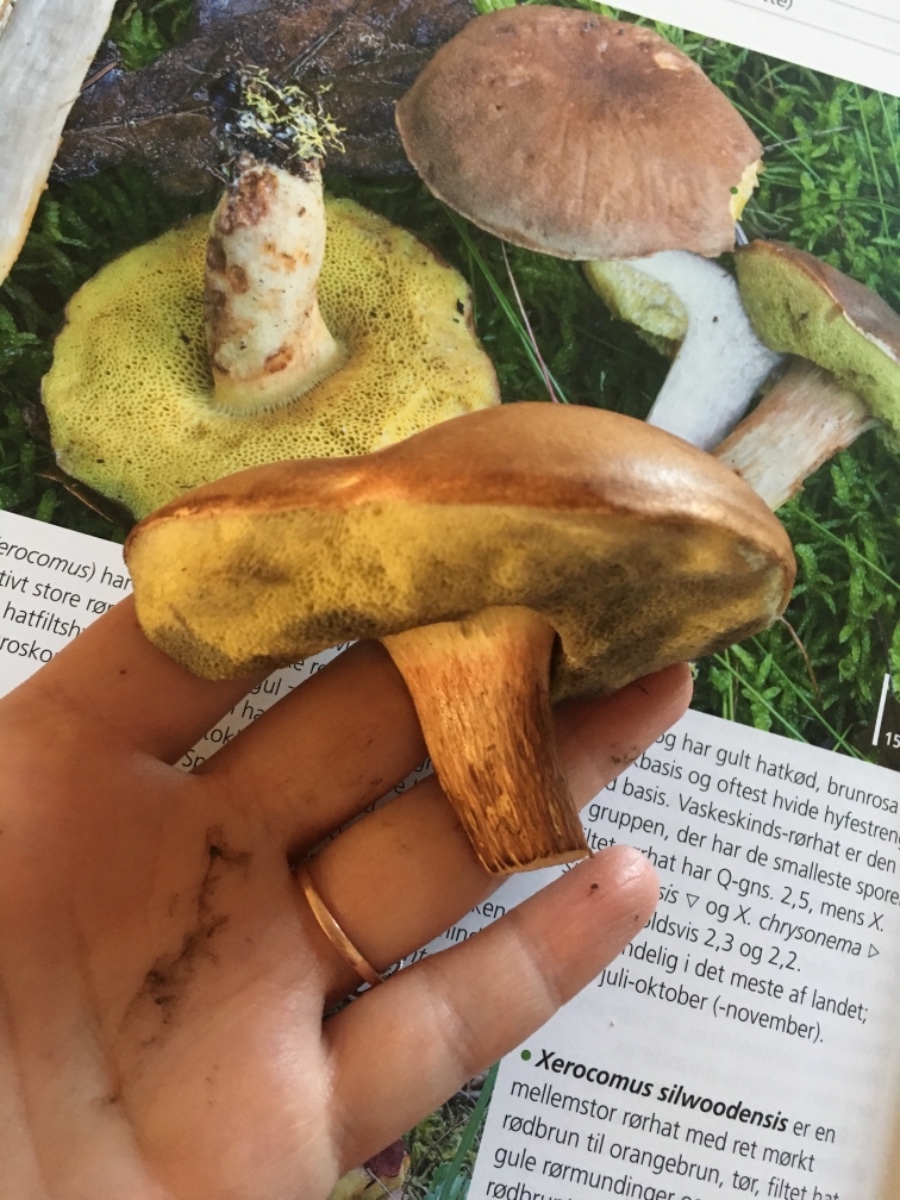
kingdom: Fungi
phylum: Basidiomycota
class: Agaricomycetes
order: Boletales
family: Boletaceae
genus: Imleria
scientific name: Imleria badia
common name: brunstokket rørhat
